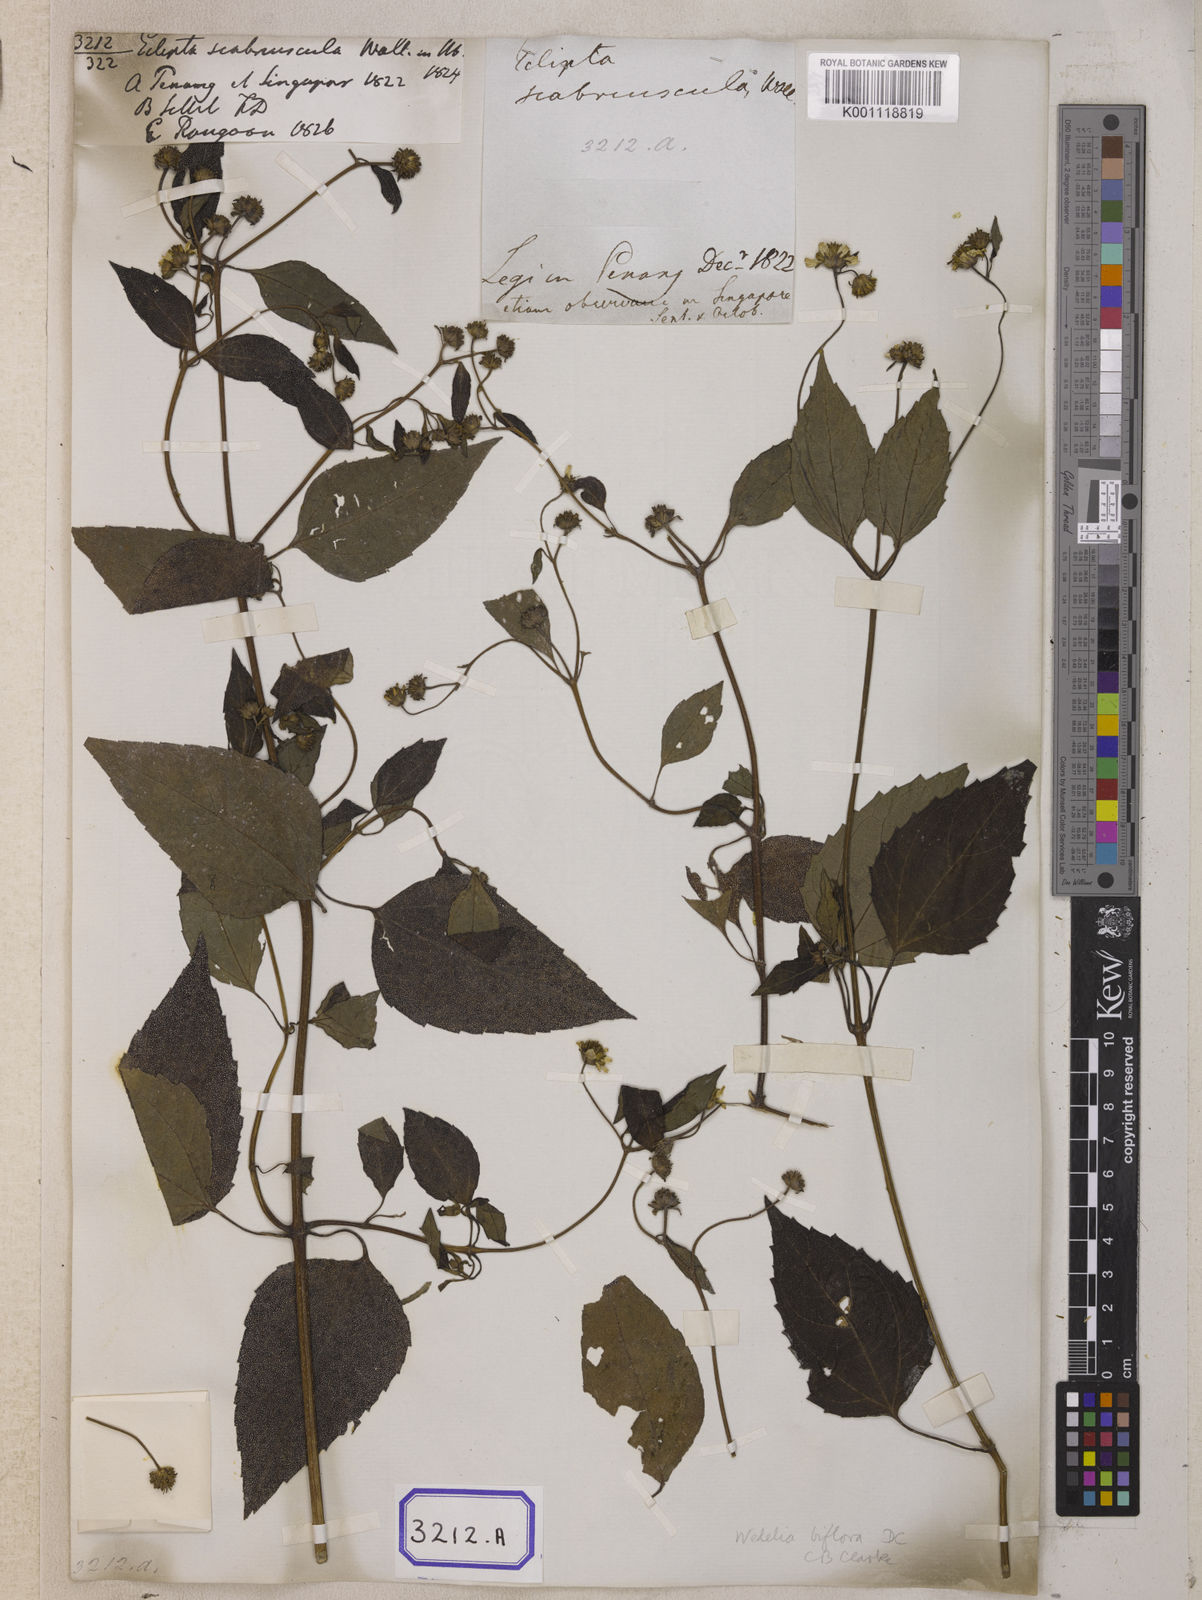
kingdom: Plantae
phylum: Tracheophyta
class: Magnoliopsida
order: Asterales
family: Asteraceae
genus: Wollastonia
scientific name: Wollastonia biflora
